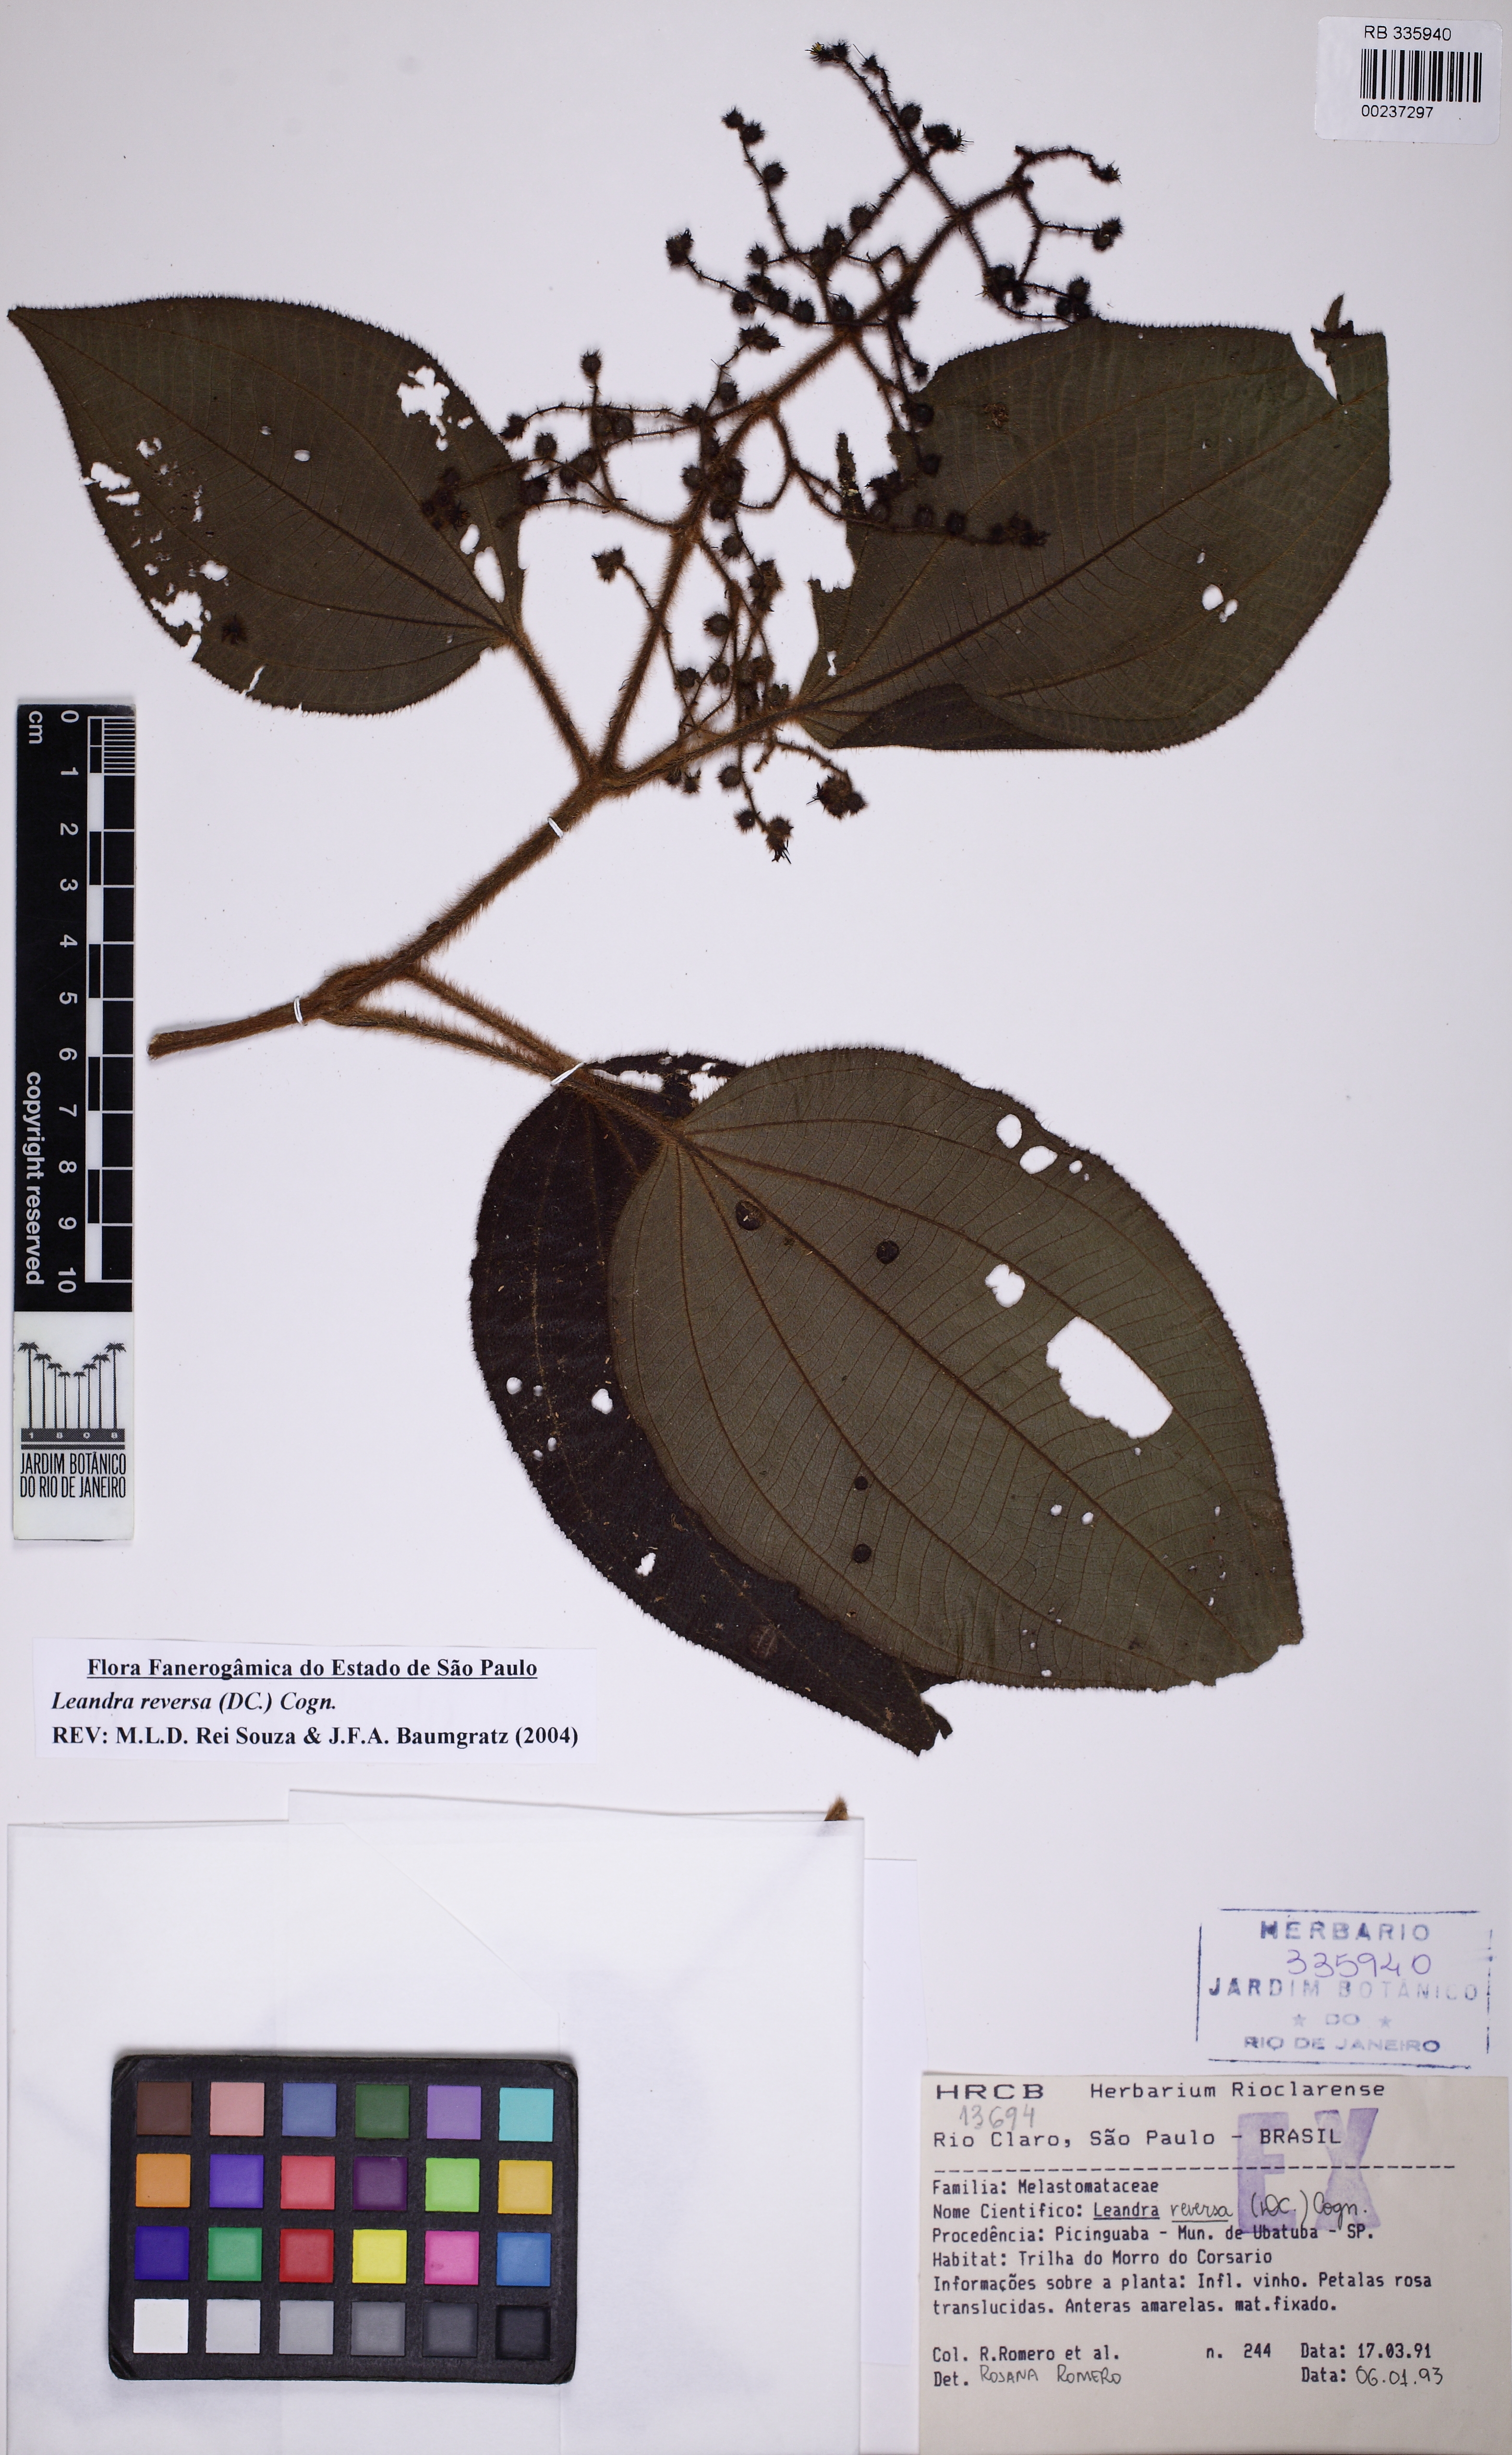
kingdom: Plantae
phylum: Tracheophyta
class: Magnoliopsida
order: Myrtales
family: Melastomataceae
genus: Miconia
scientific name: Miconia reversa
